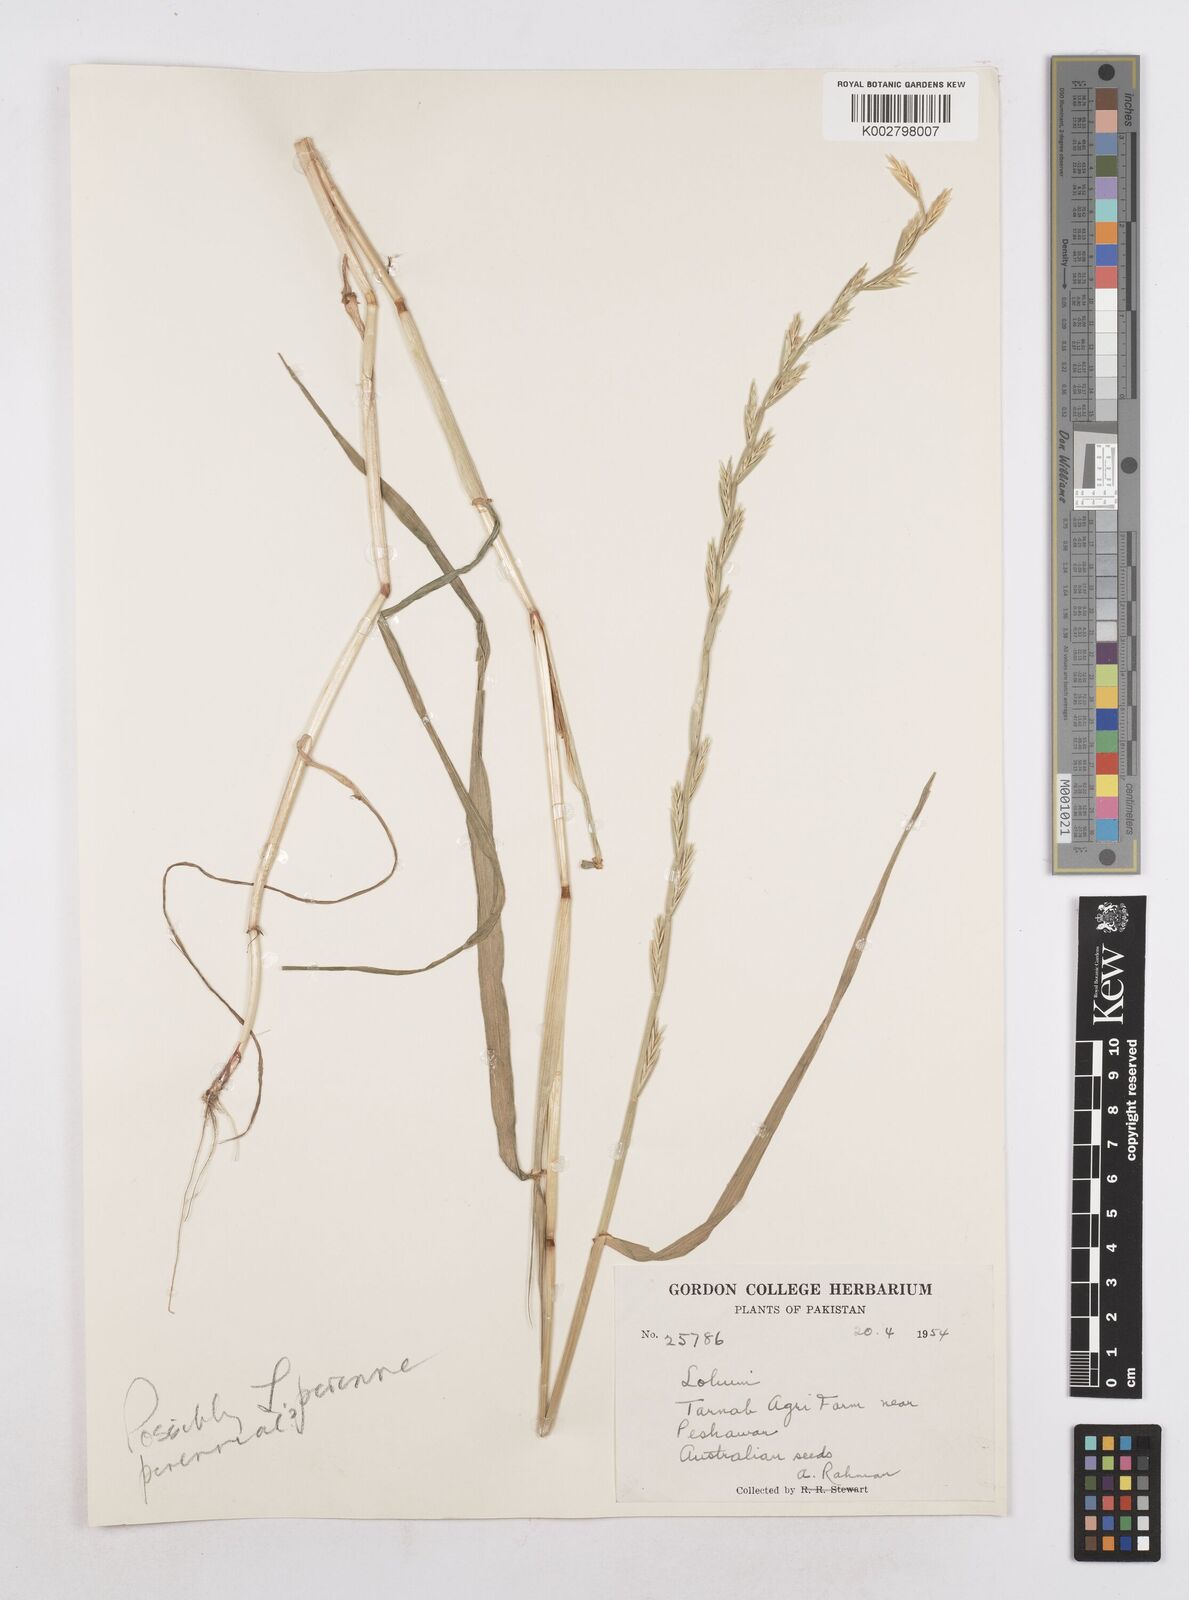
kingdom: Plantae
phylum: Tracheophyta
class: Liliopsida
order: Poales
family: Poaceae
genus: Lolium
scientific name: Lolium
